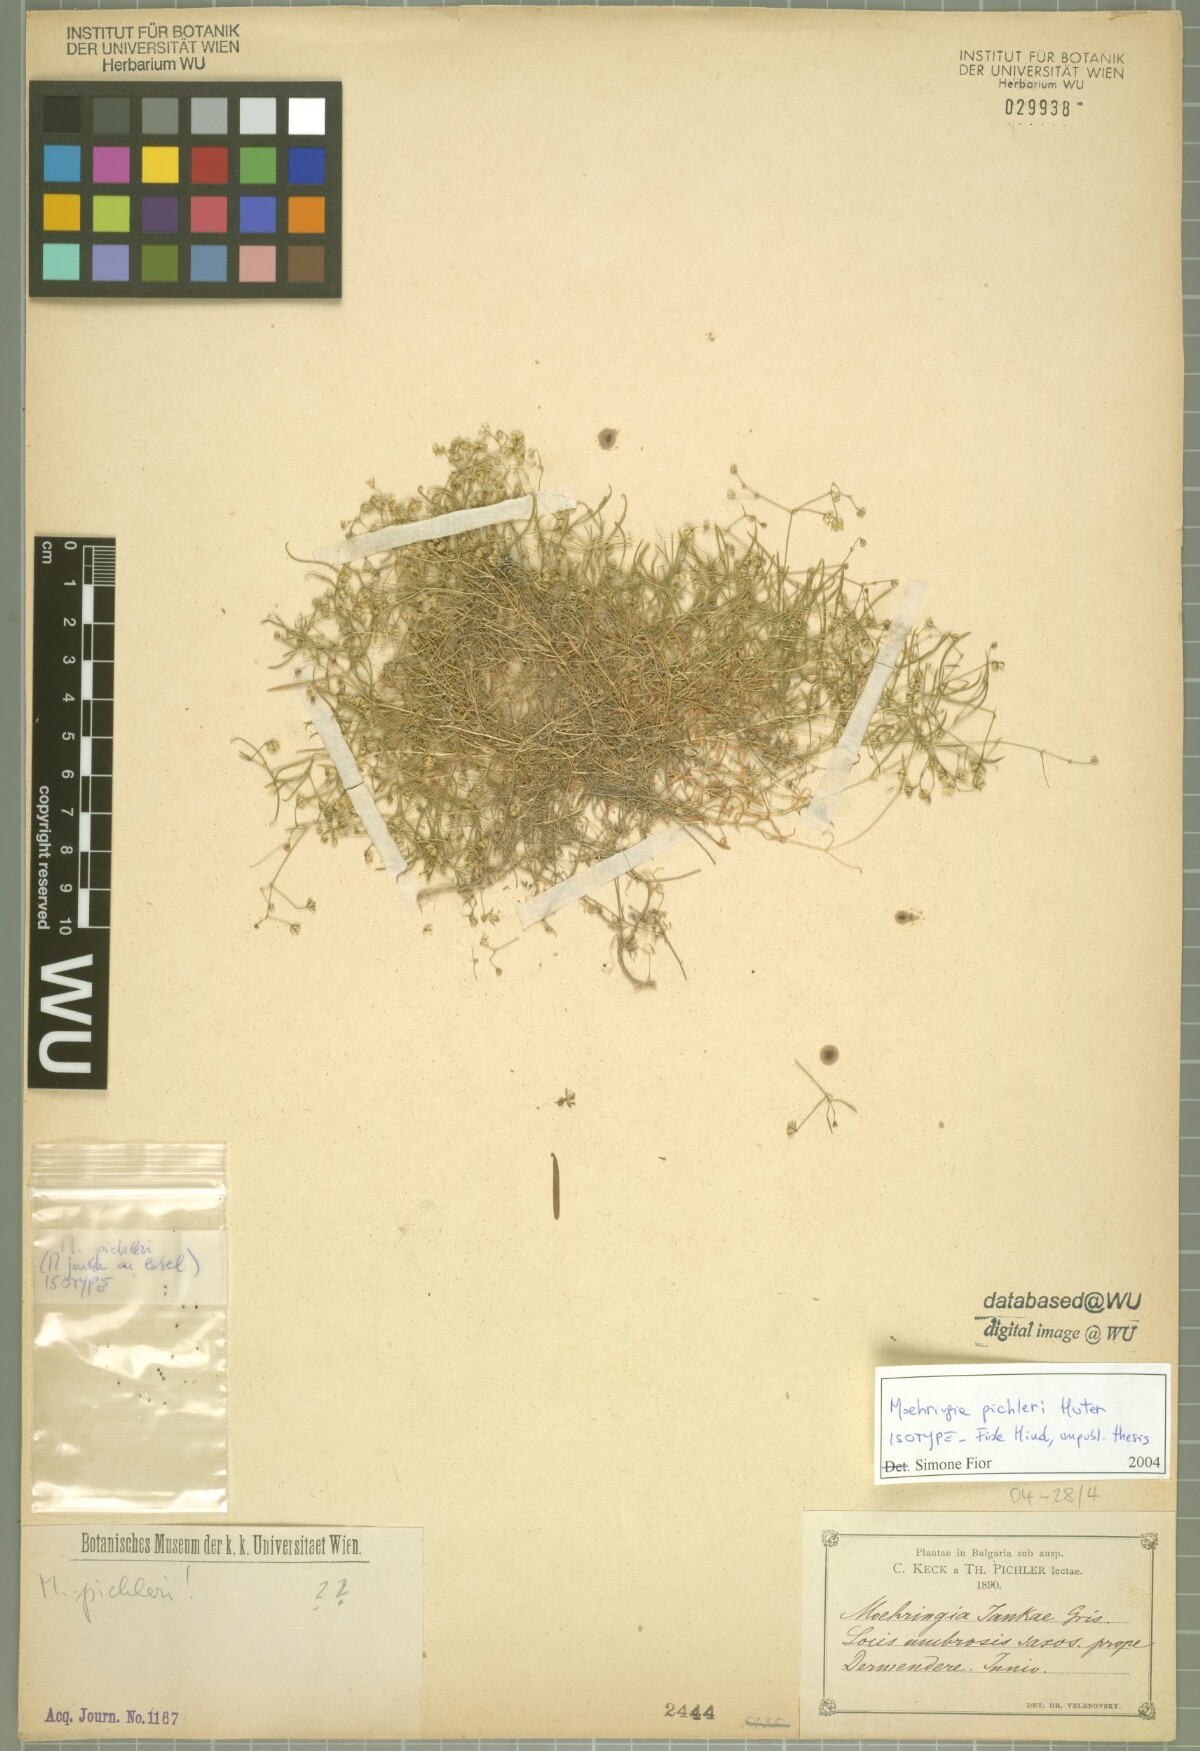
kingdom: Plantae
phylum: Tracheophyta
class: Magnoliopsida
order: Caryophyllales
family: Caryophyllaceae
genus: Moehringia
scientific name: Moehringia muscosa
